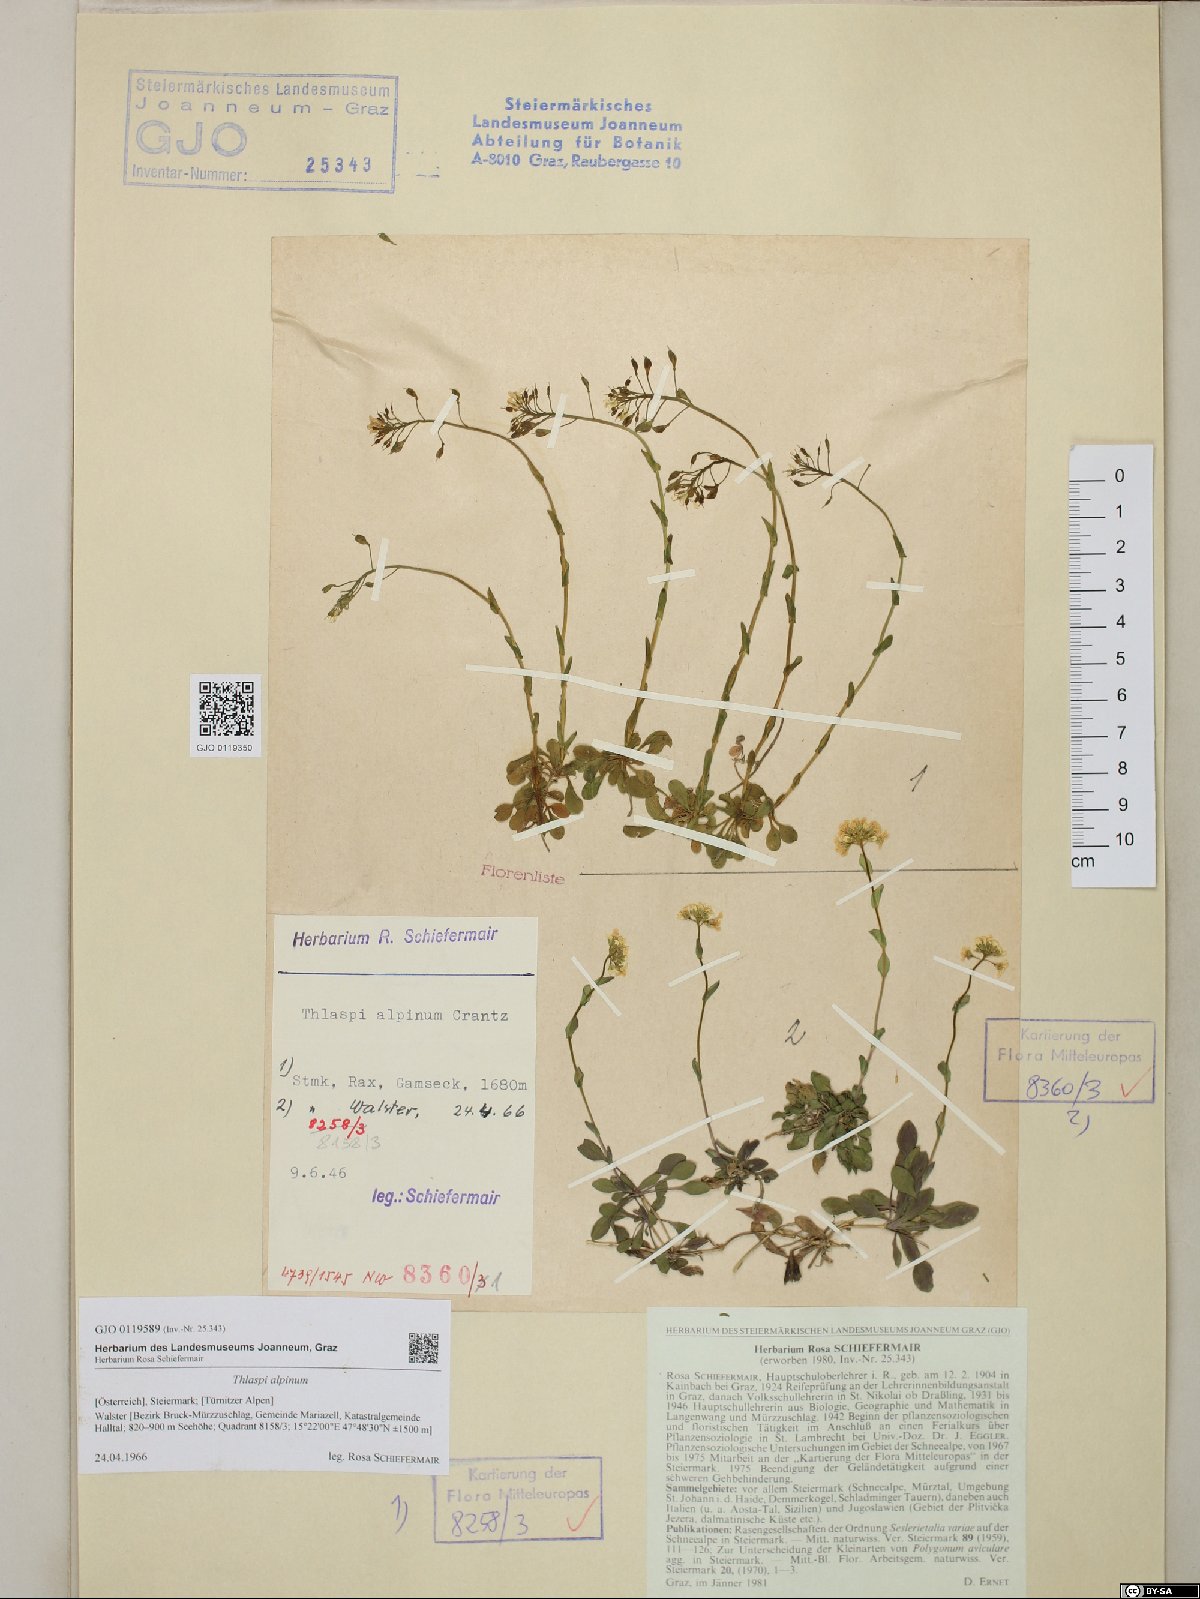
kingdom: Plantae
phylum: Tracheophyta
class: Magnoliopsida
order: Brassicales
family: Brassicaceae
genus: Noccaea
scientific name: Noccaea alpestris
